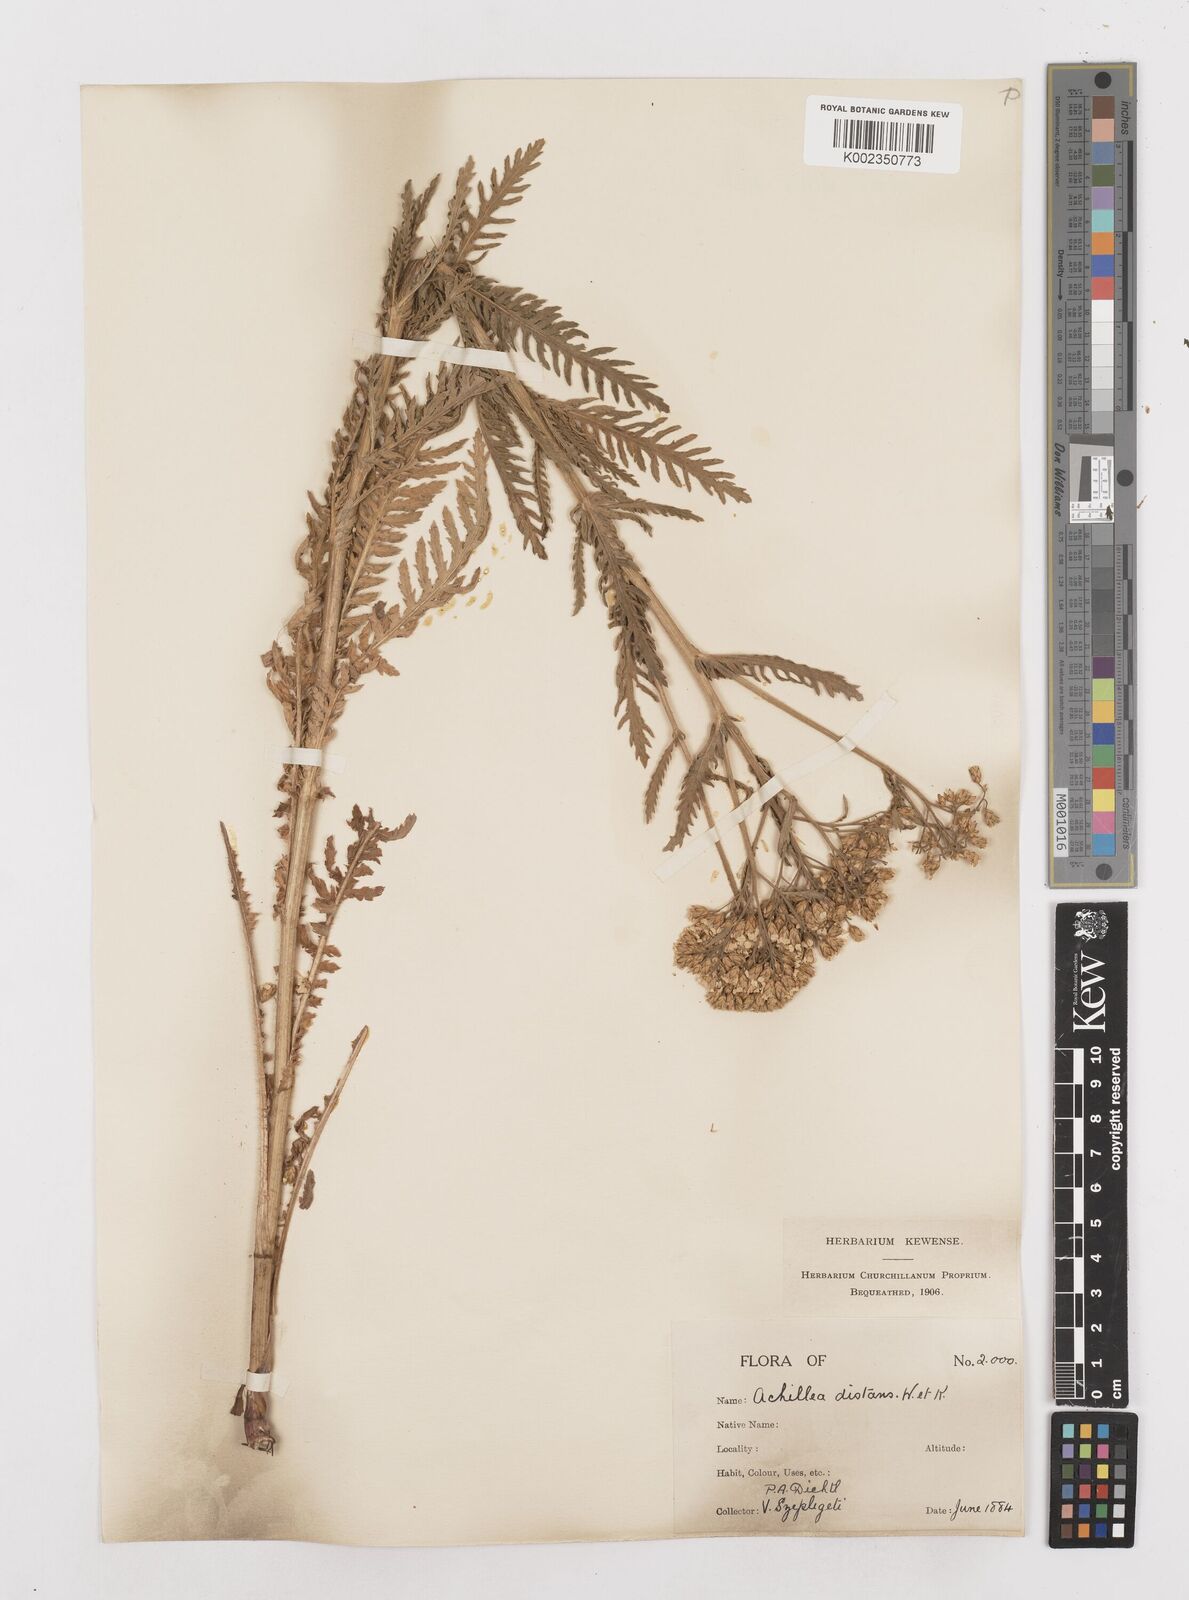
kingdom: Plantae
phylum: Tracheophyta
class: Magnoliopsida
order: Asterales
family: Asteraceae
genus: Achillea
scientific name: Achillea distans
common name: Tall yarrow
